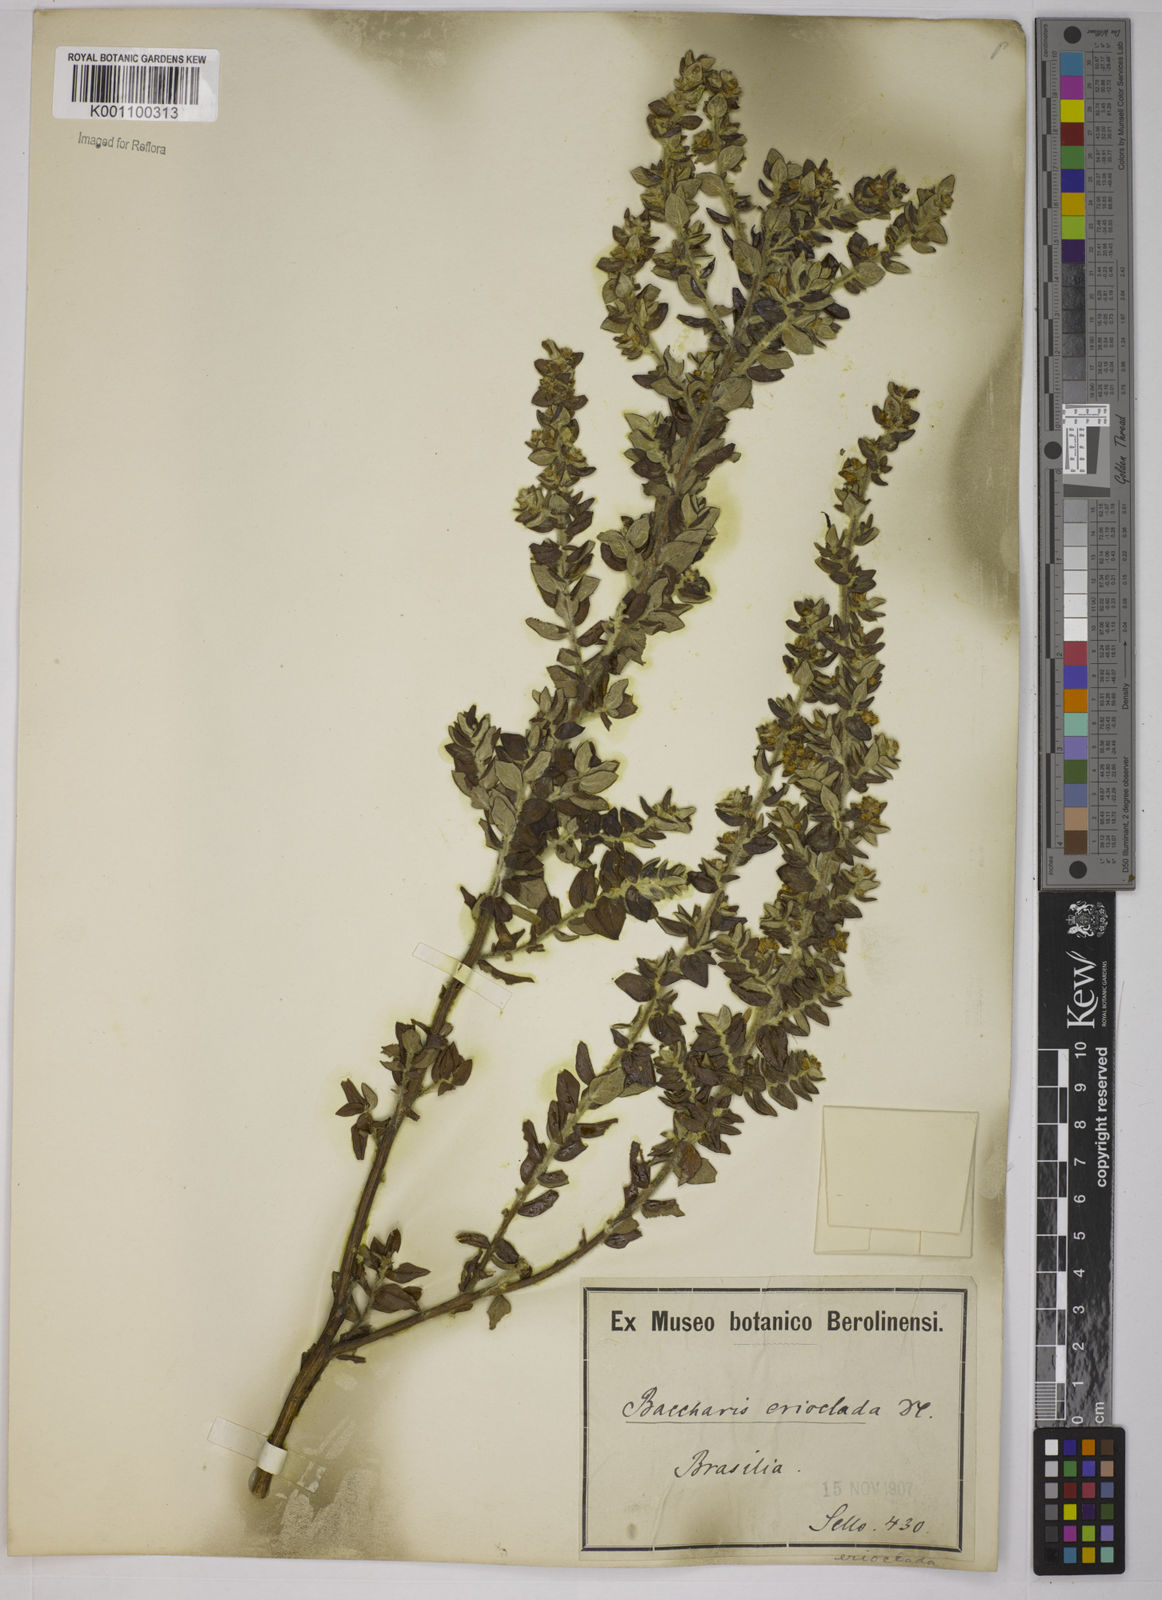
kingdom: Plantae
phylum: Tracheophyta
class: Magnoliopsida
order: Asterales
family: Asteraceae
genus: Baccharis
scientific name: Baccharis erioclada
